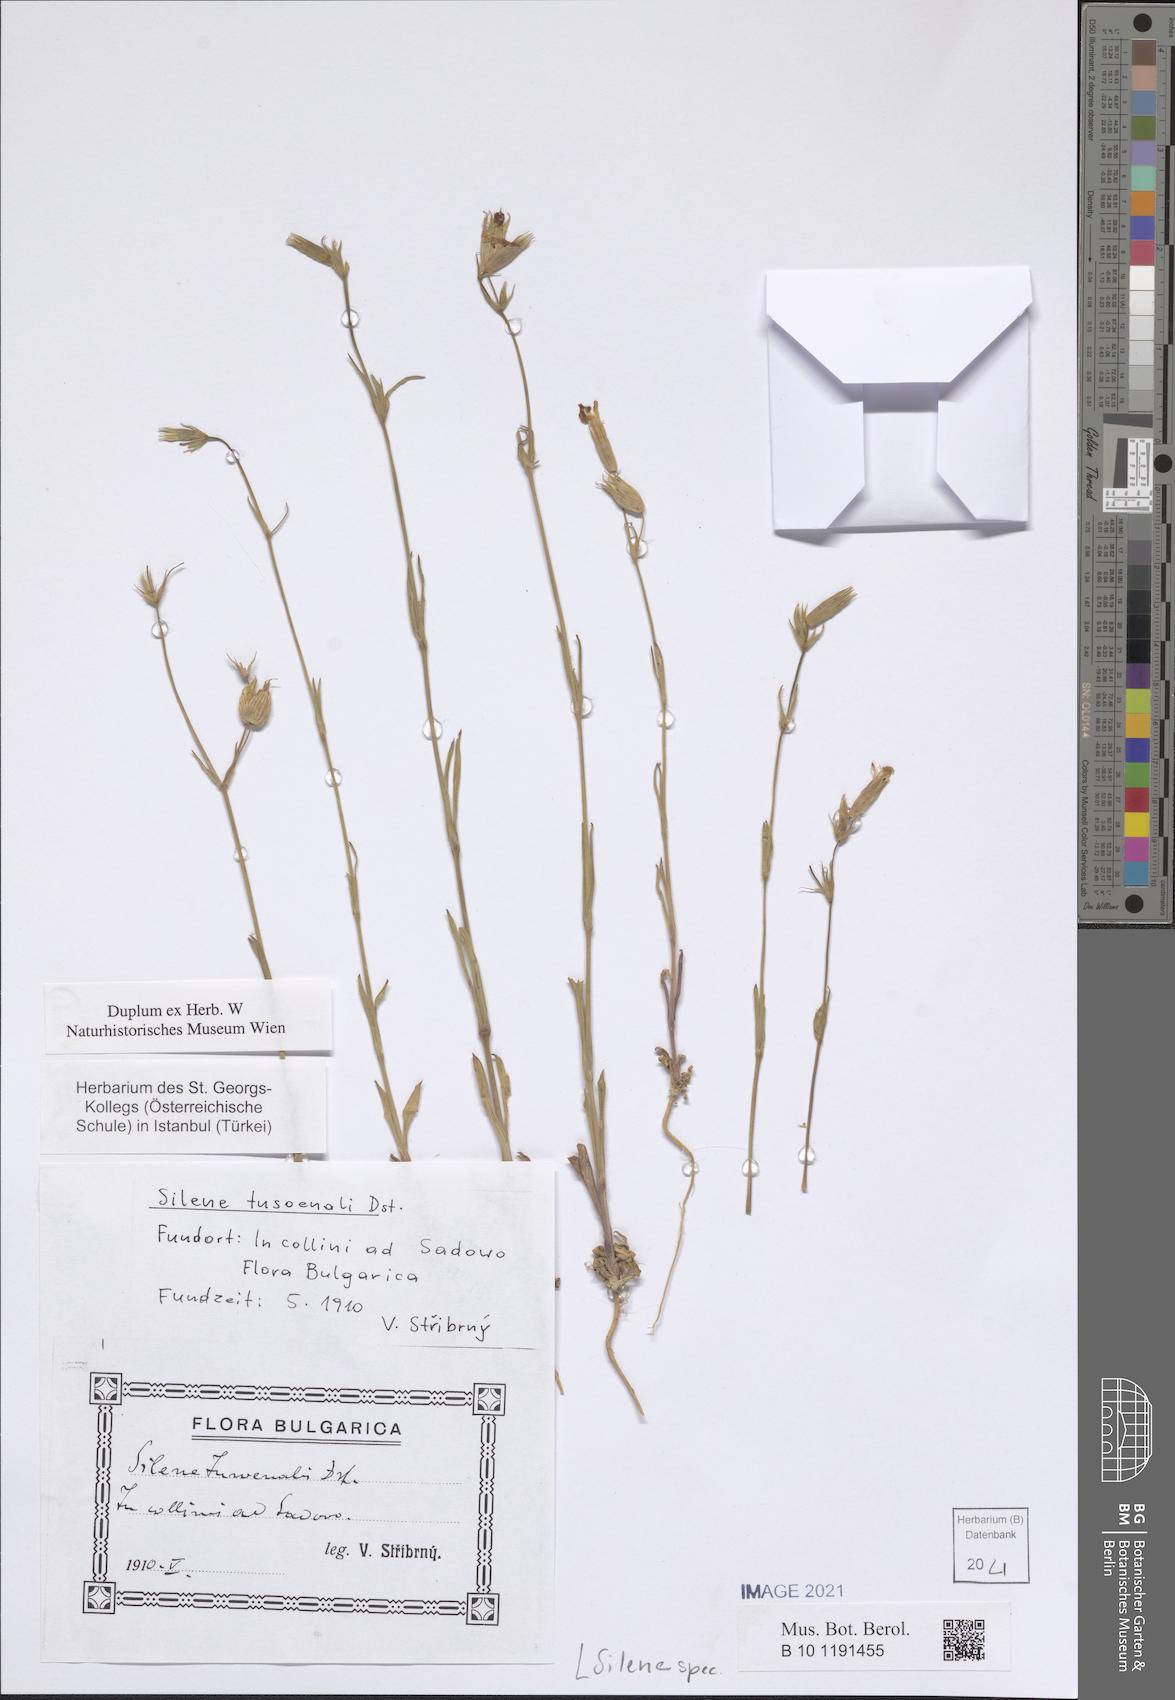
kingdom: Plantae
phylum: Tracheophyta
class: Magnoliopsida
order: Caryophyllales
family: Caryophyllaceae
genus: Silene
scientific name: Silene subconica
